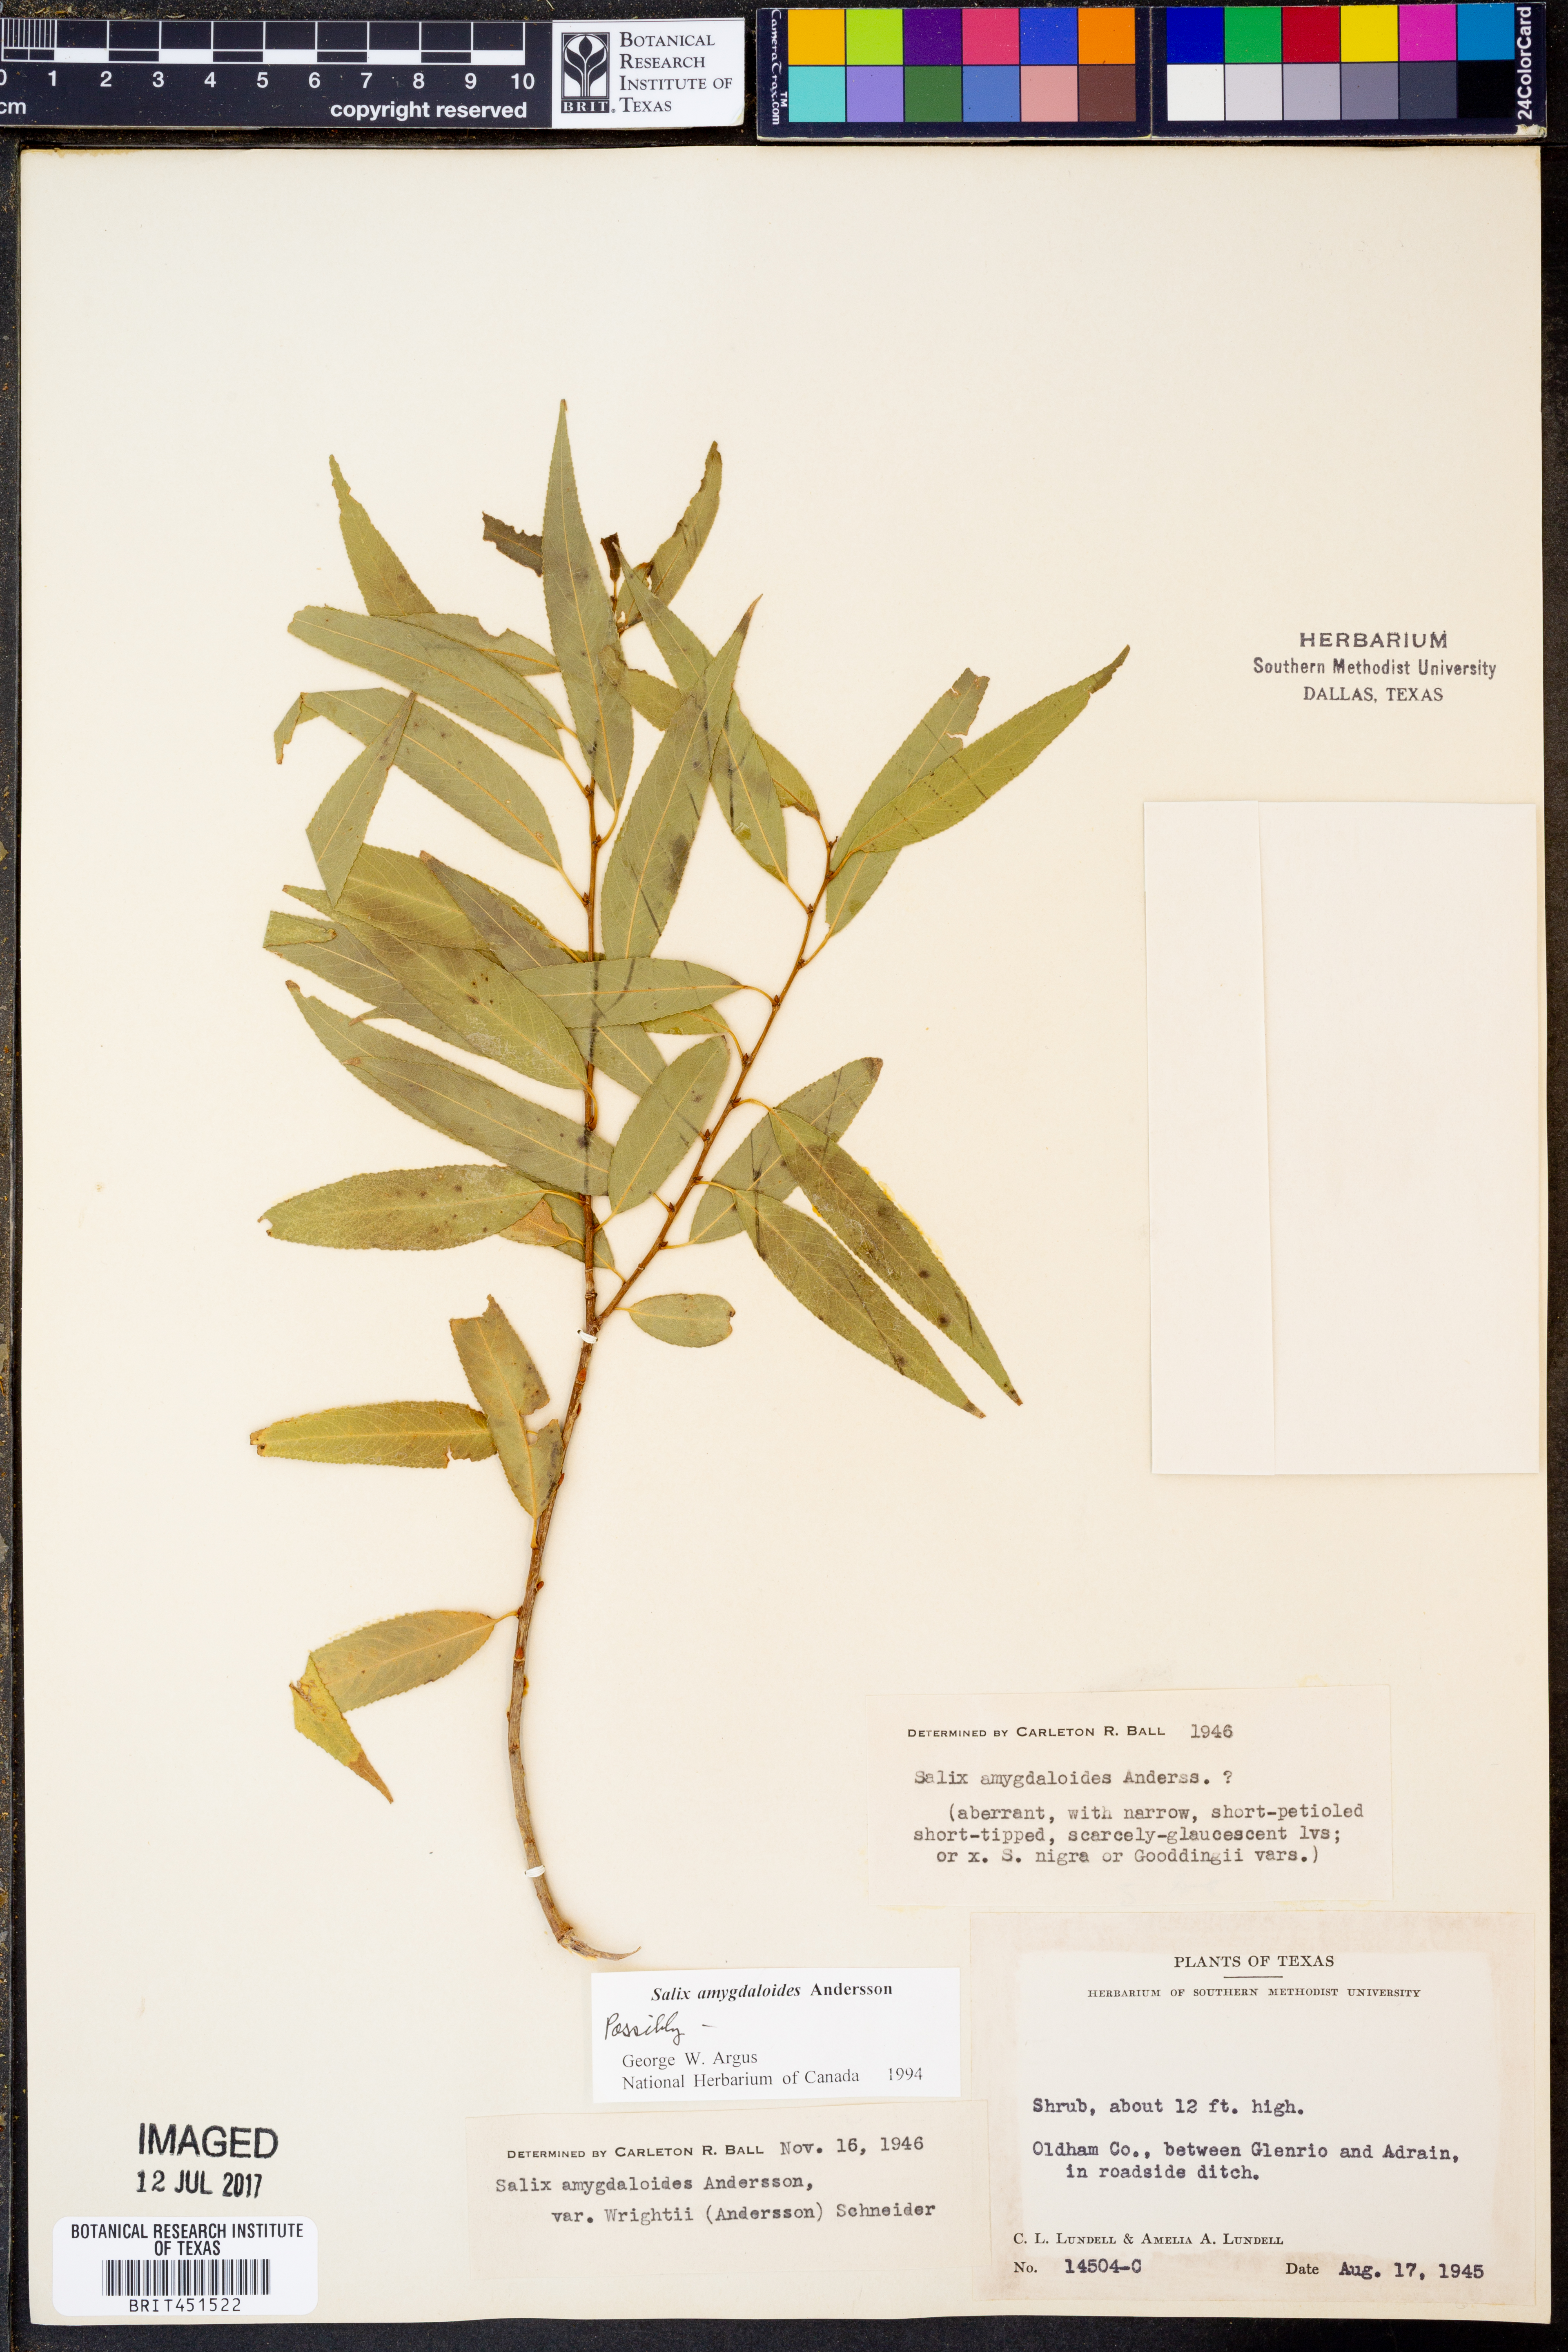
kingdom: Plantae
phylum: Tracheophyta
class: Magnoliopsida
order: Malpighiales
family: Salicaceae
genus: Salix
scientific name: Salix amygdaloides
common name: Peach leaf willow
